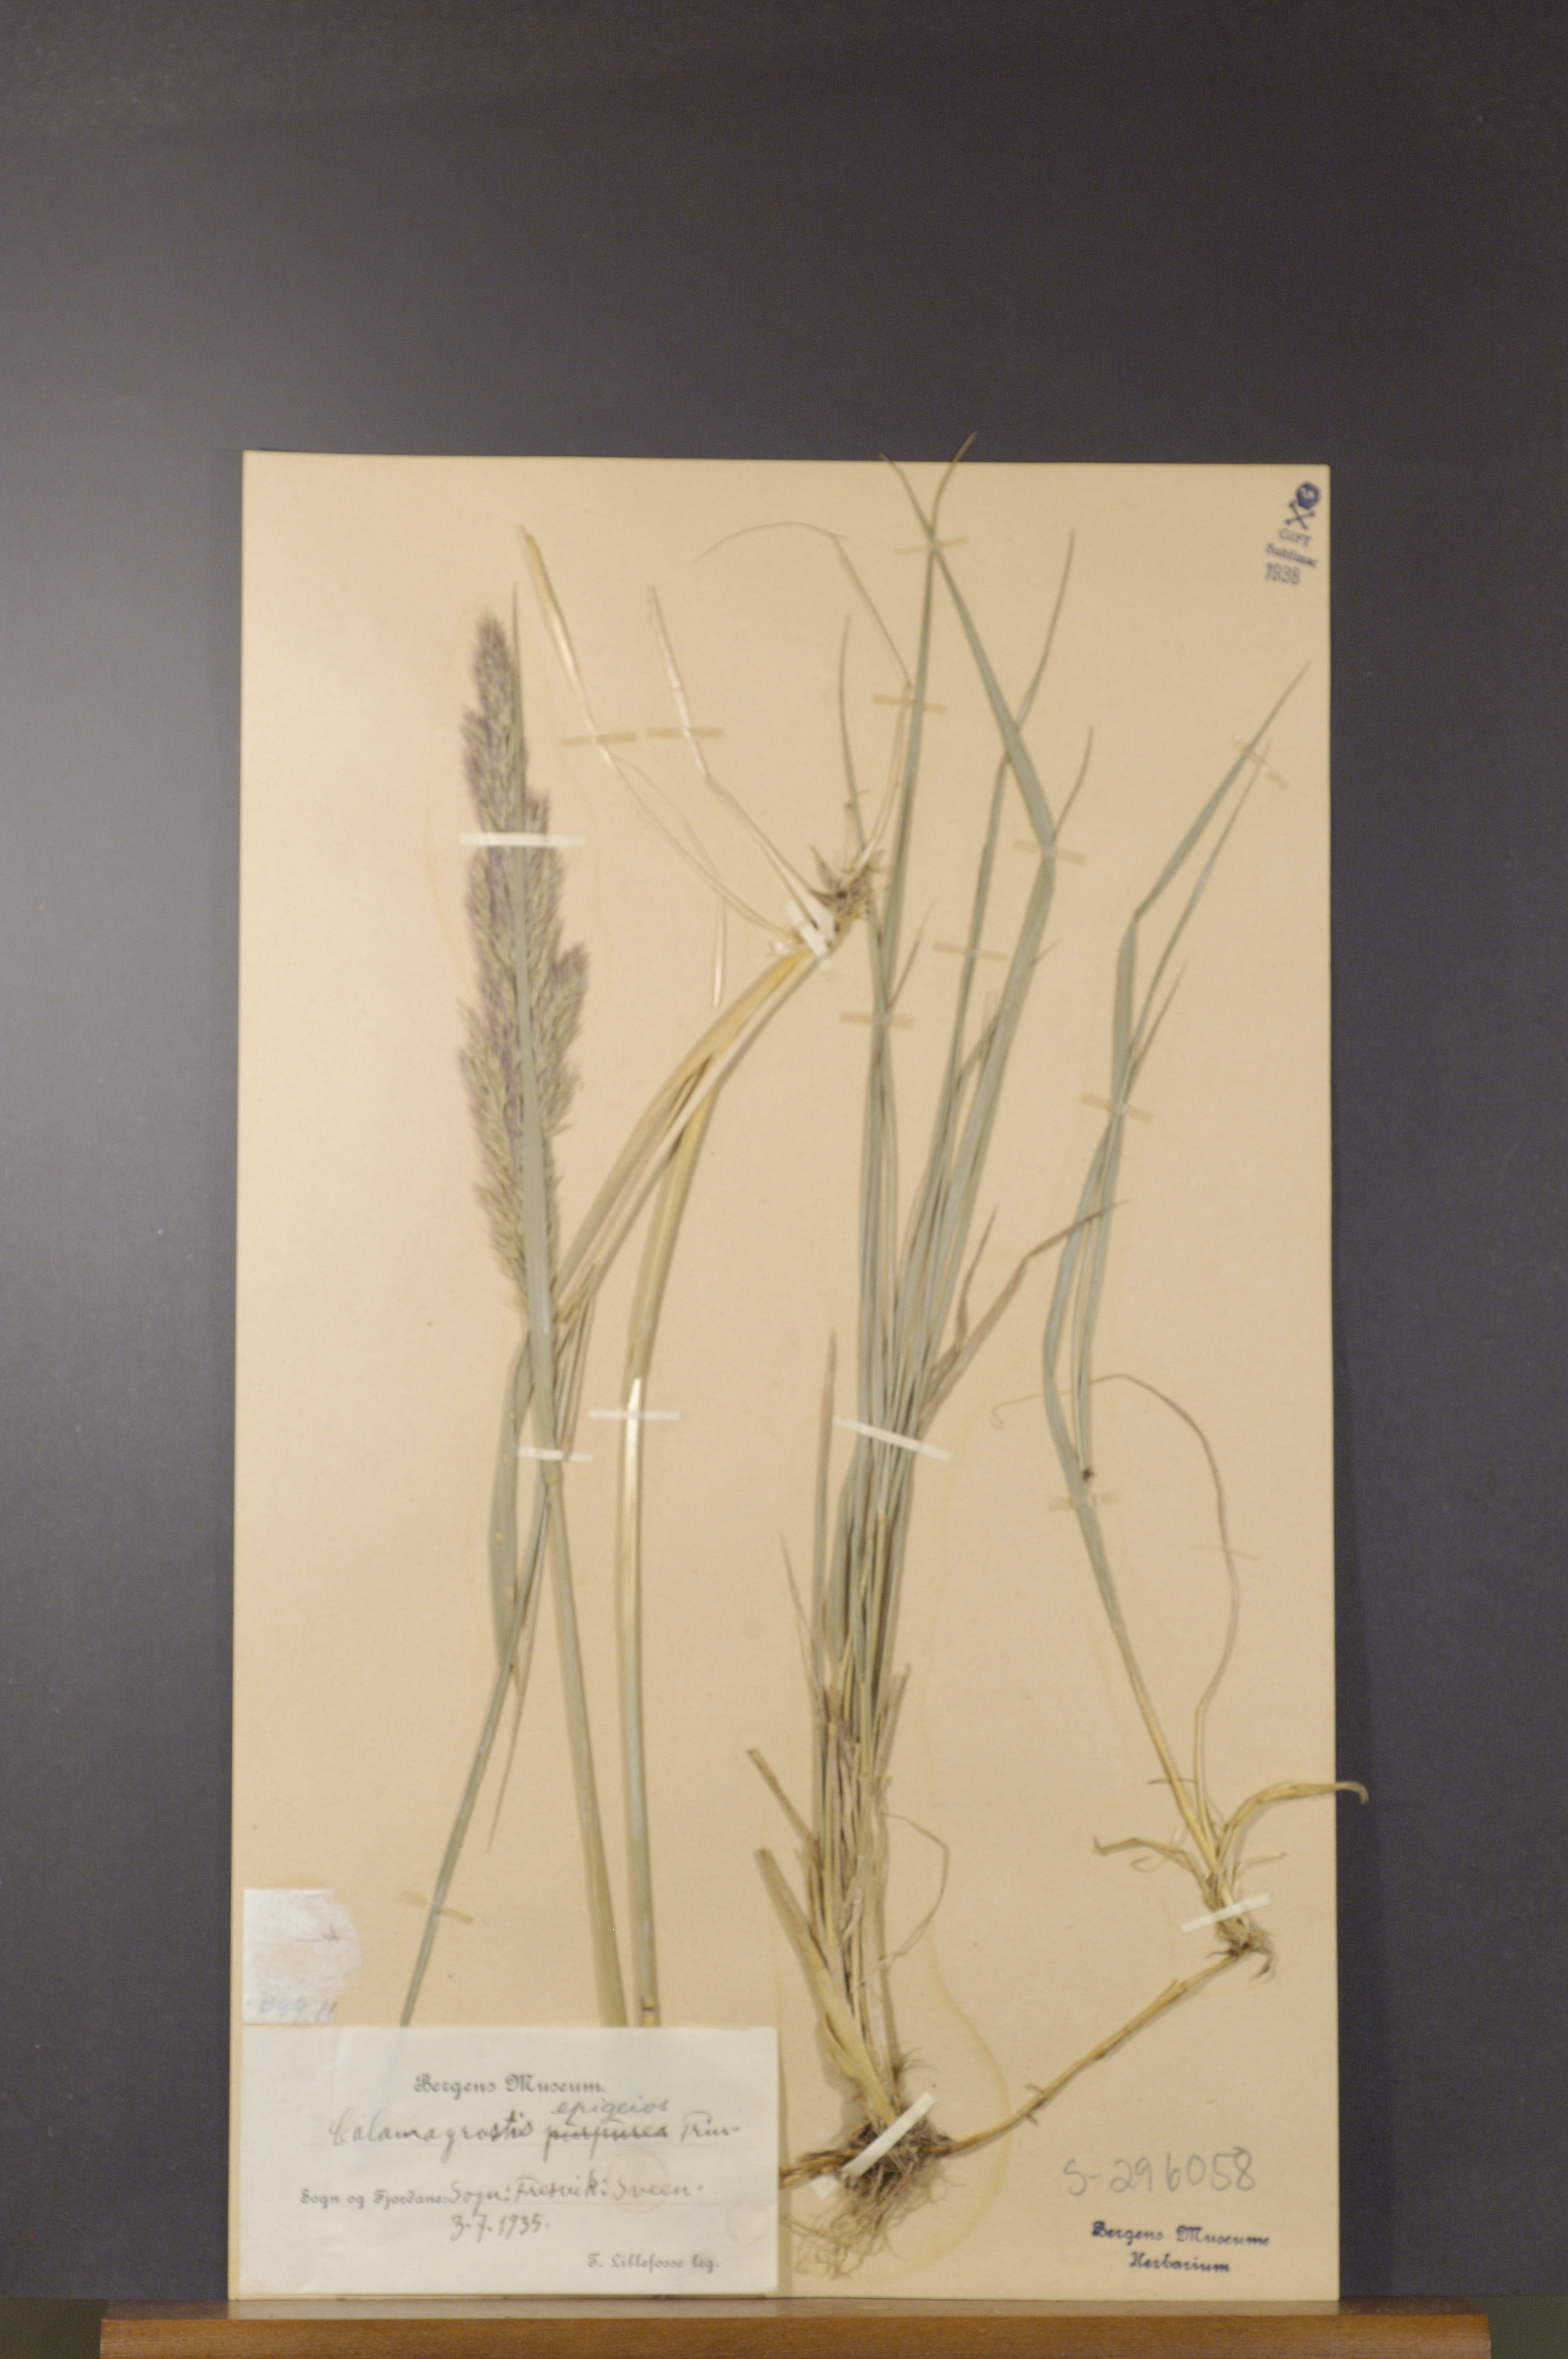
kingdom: Plantae
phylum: Tracheophyta
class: Liliopsida
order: Poales
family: Poaceae
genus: Calamagrostis
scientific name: Calamagrostis epigejos
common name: Wood small-reed
